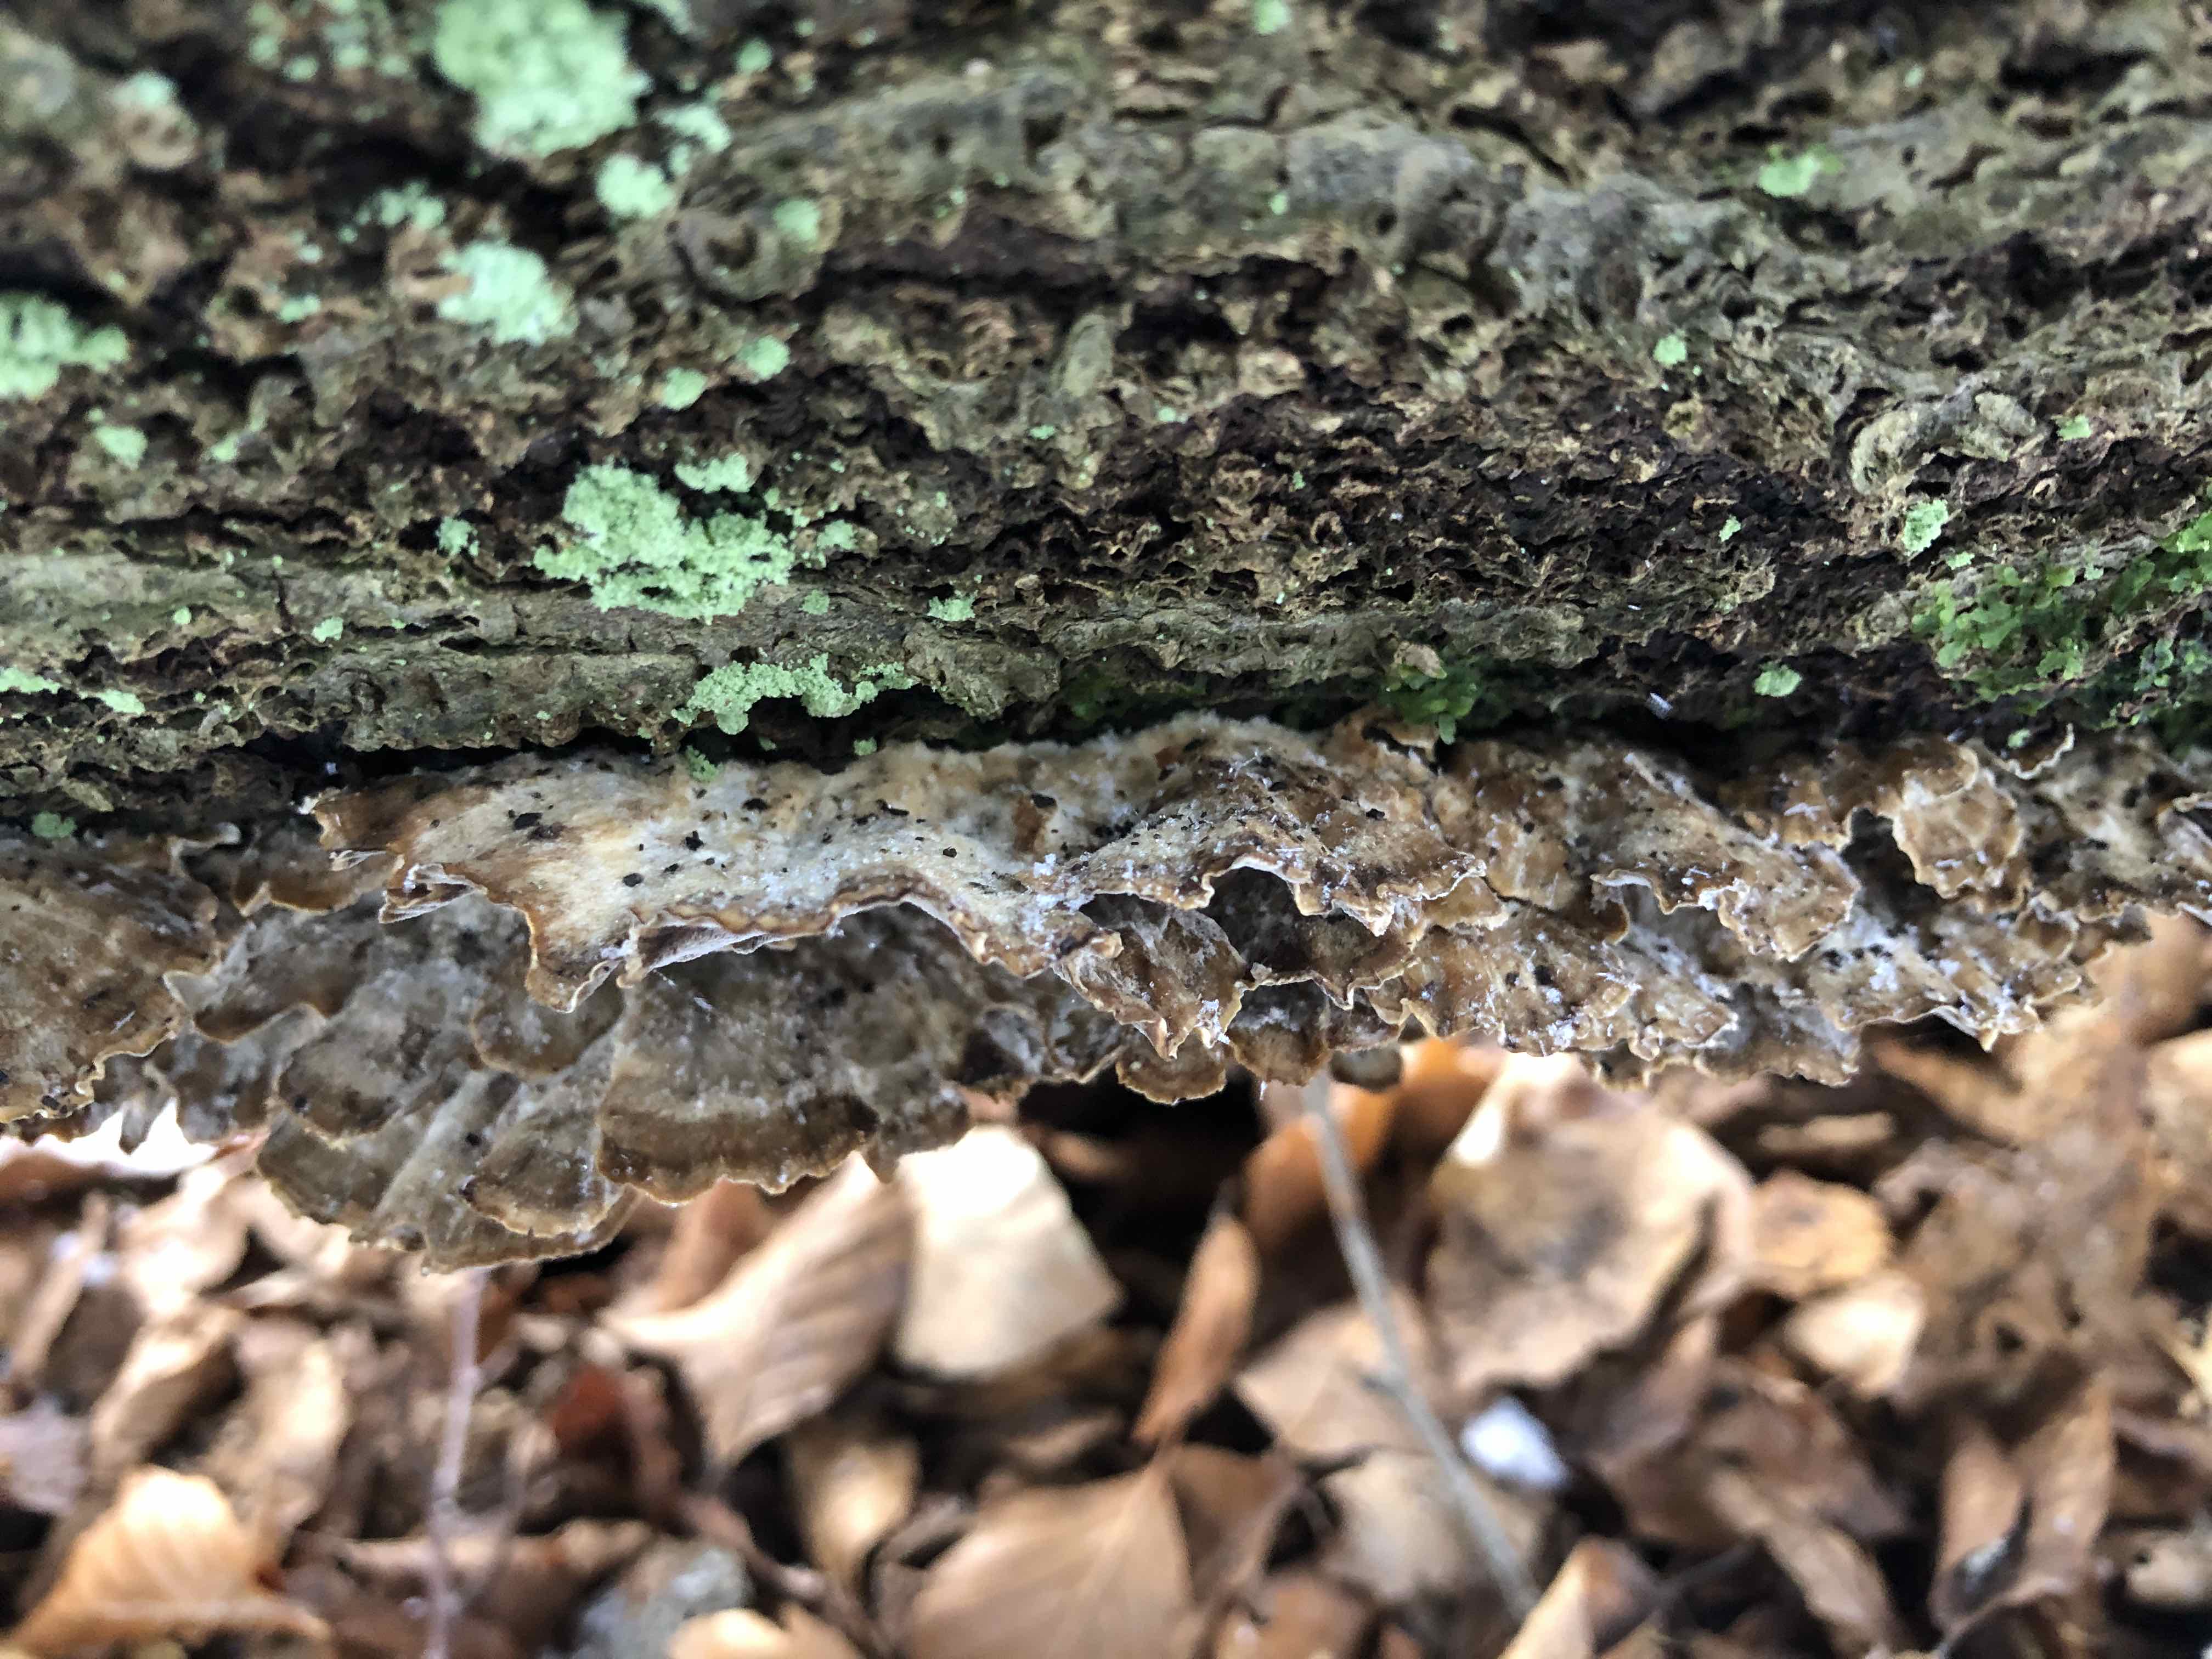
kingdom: Fungi
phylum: Basidiomycota
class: Agaricomycetes
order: Polyporales
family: Phanerochaetaceae
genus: Bjerkandera
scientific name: Bjerkandera adusta
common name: sveden sodporesvamp
